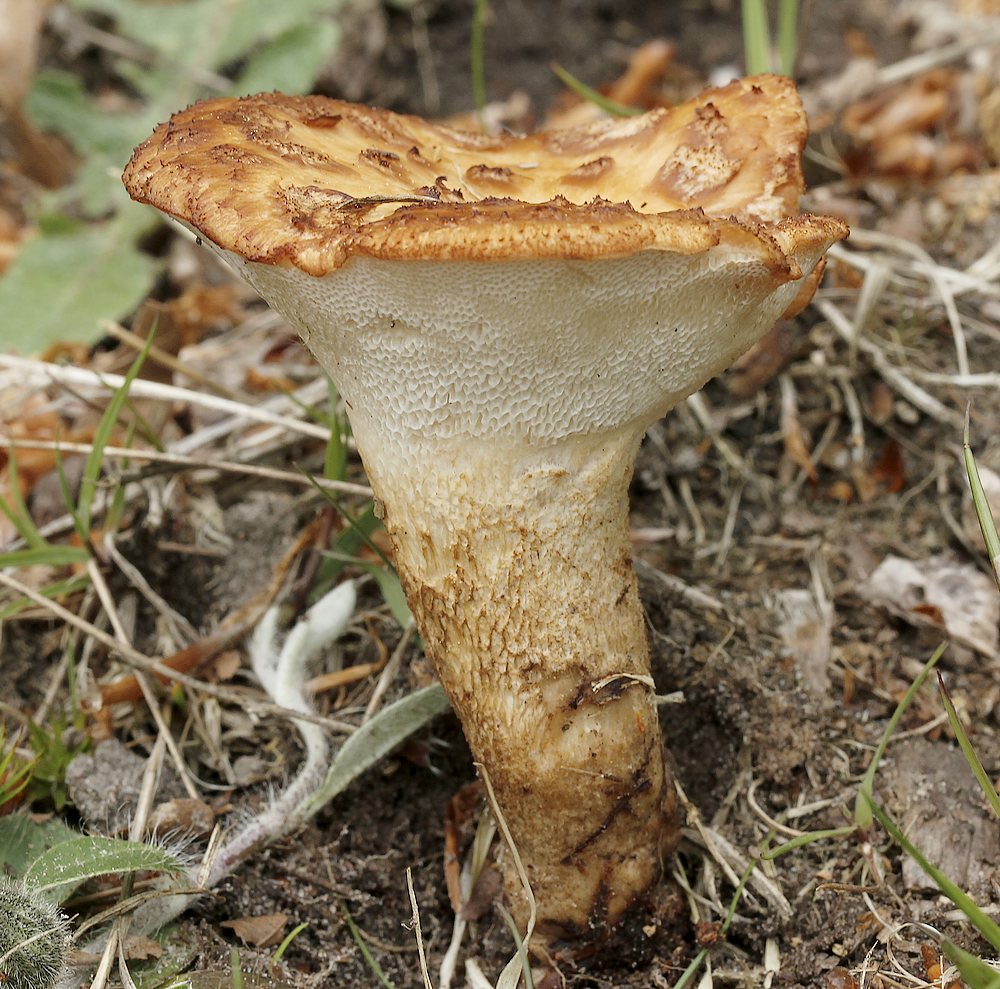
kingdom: Fungi
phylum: Basidiomycota
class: Agaricomycetes
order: Polyporales
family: Polyporaceae
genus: Polyporus
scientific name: Polyporus tuberaster
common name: knoldet stilkporesvamp
